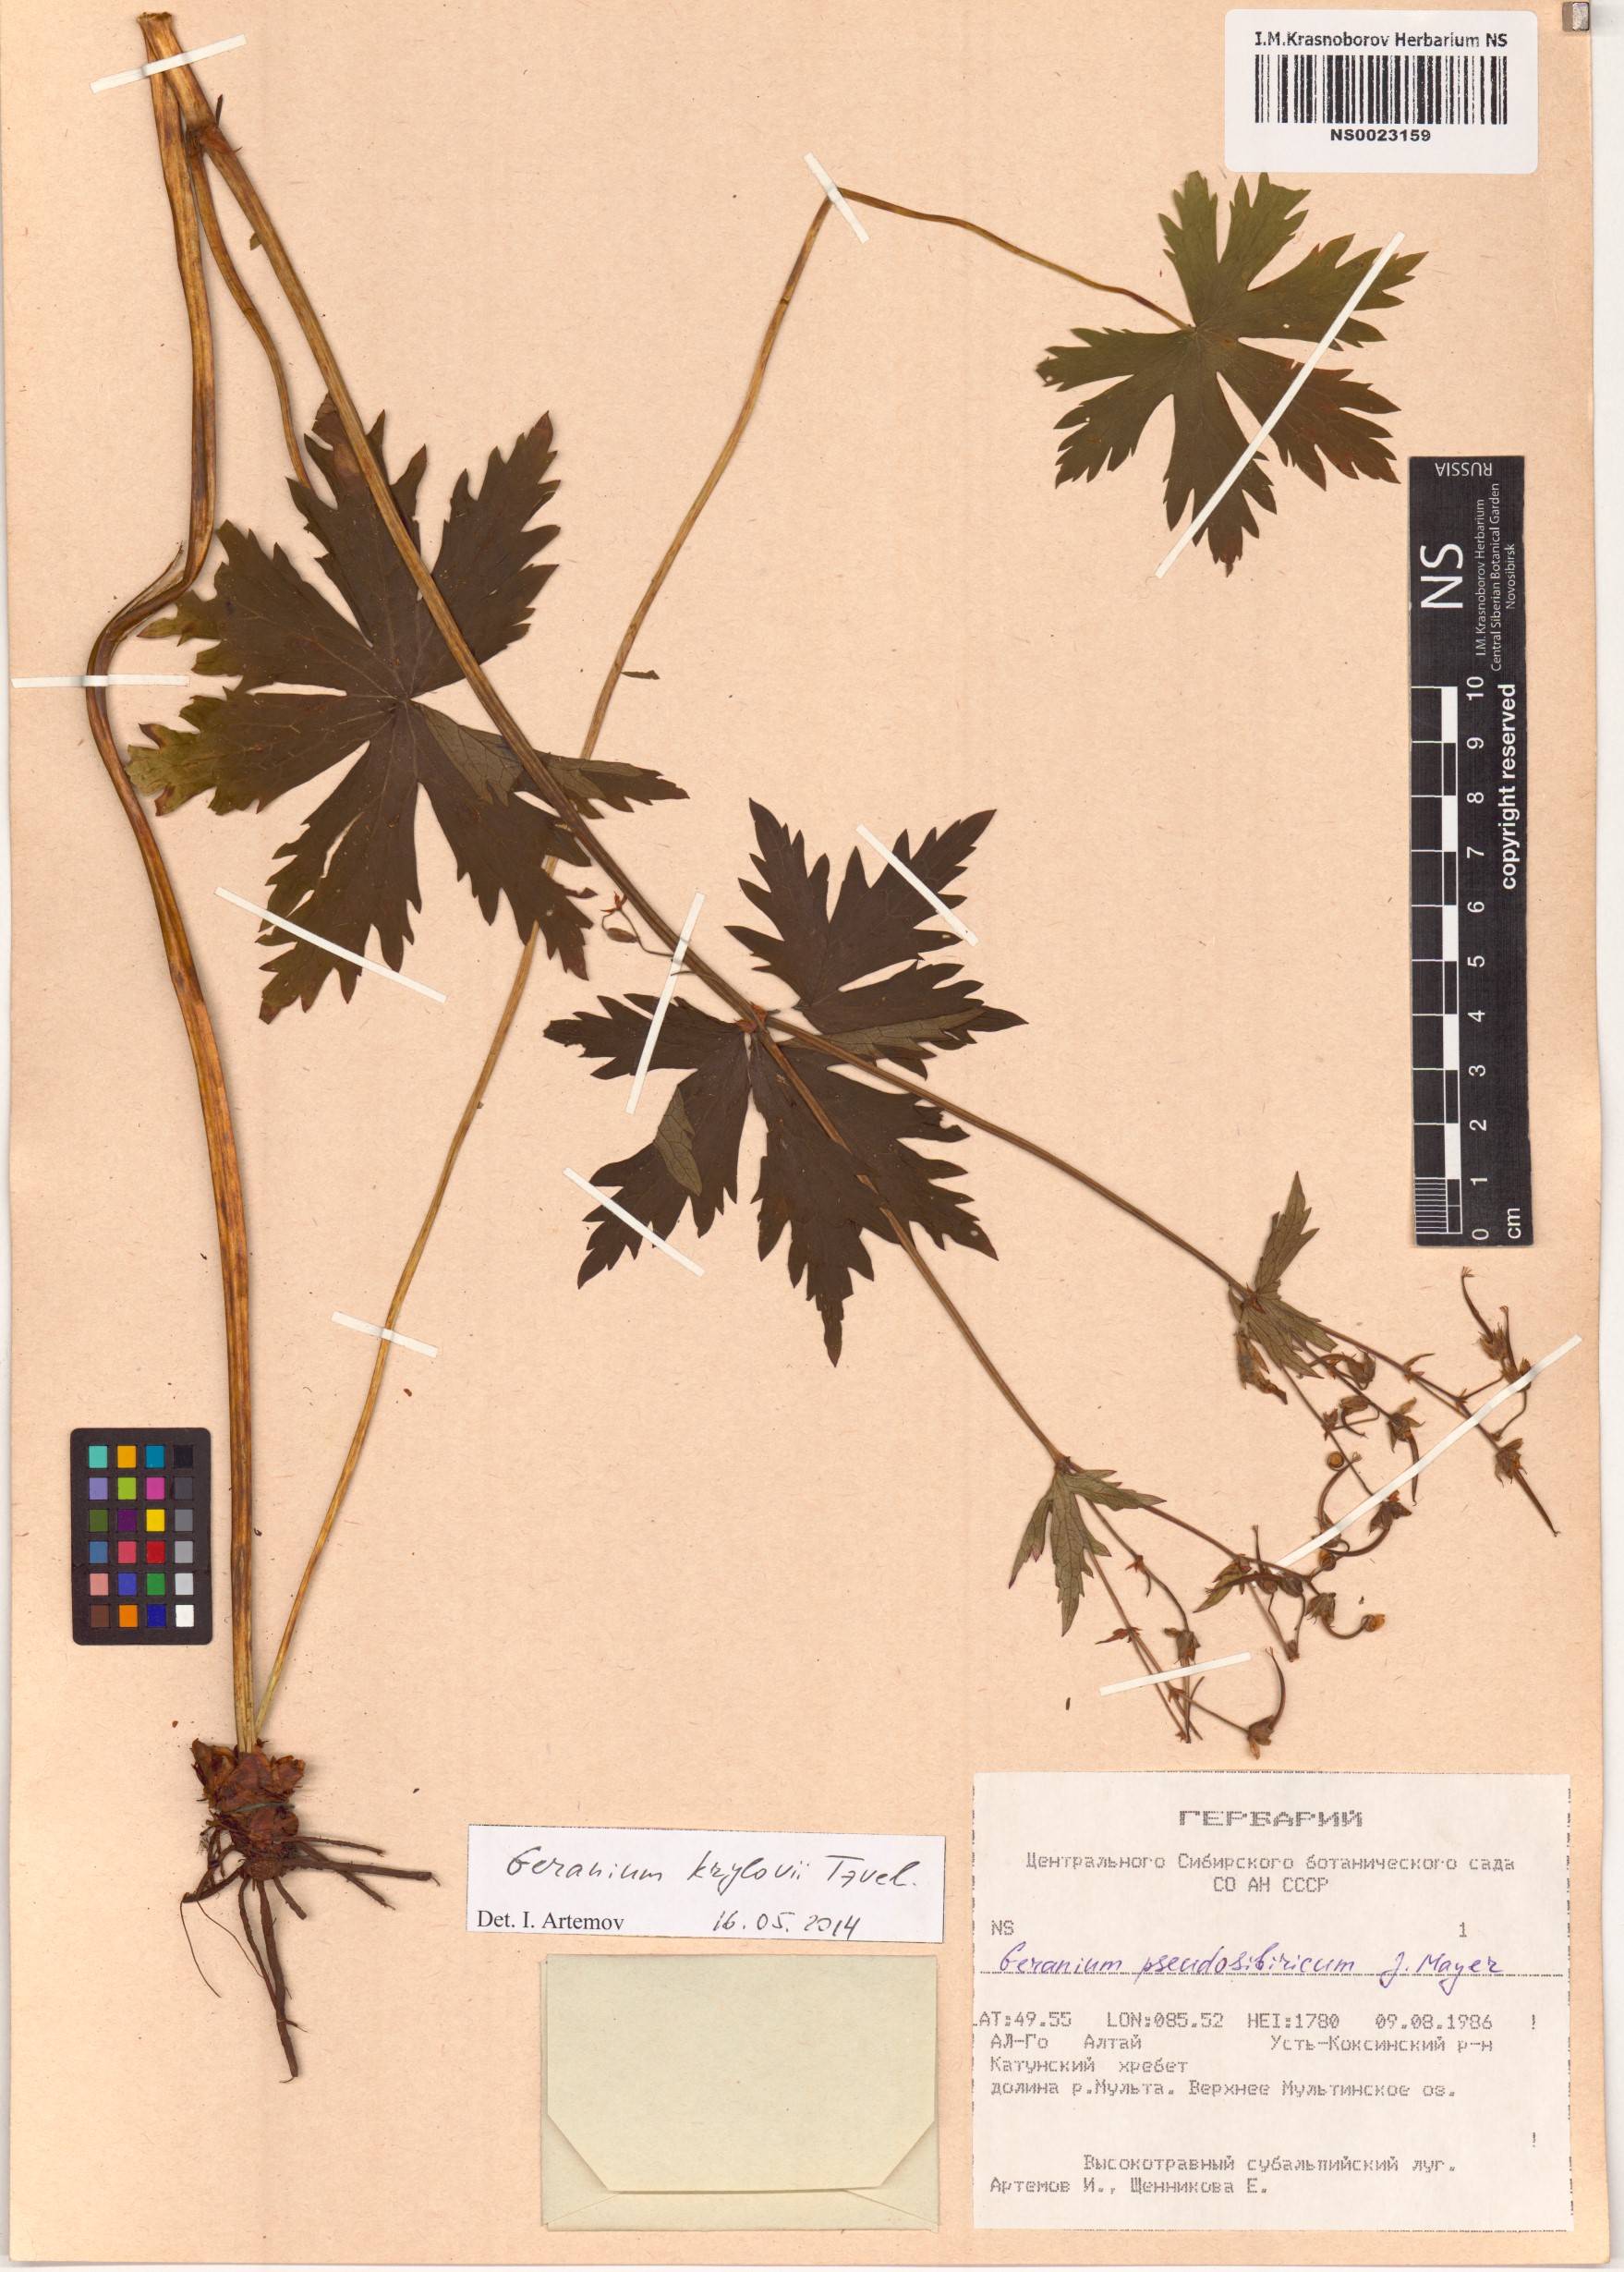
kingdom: Plantae
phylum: Tracheophyta
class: Magnoliopsida
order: Geraniales
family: Geraniaceae
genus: Geranium
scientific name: Geranium sylvaticum
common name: Wood crane's-bill
